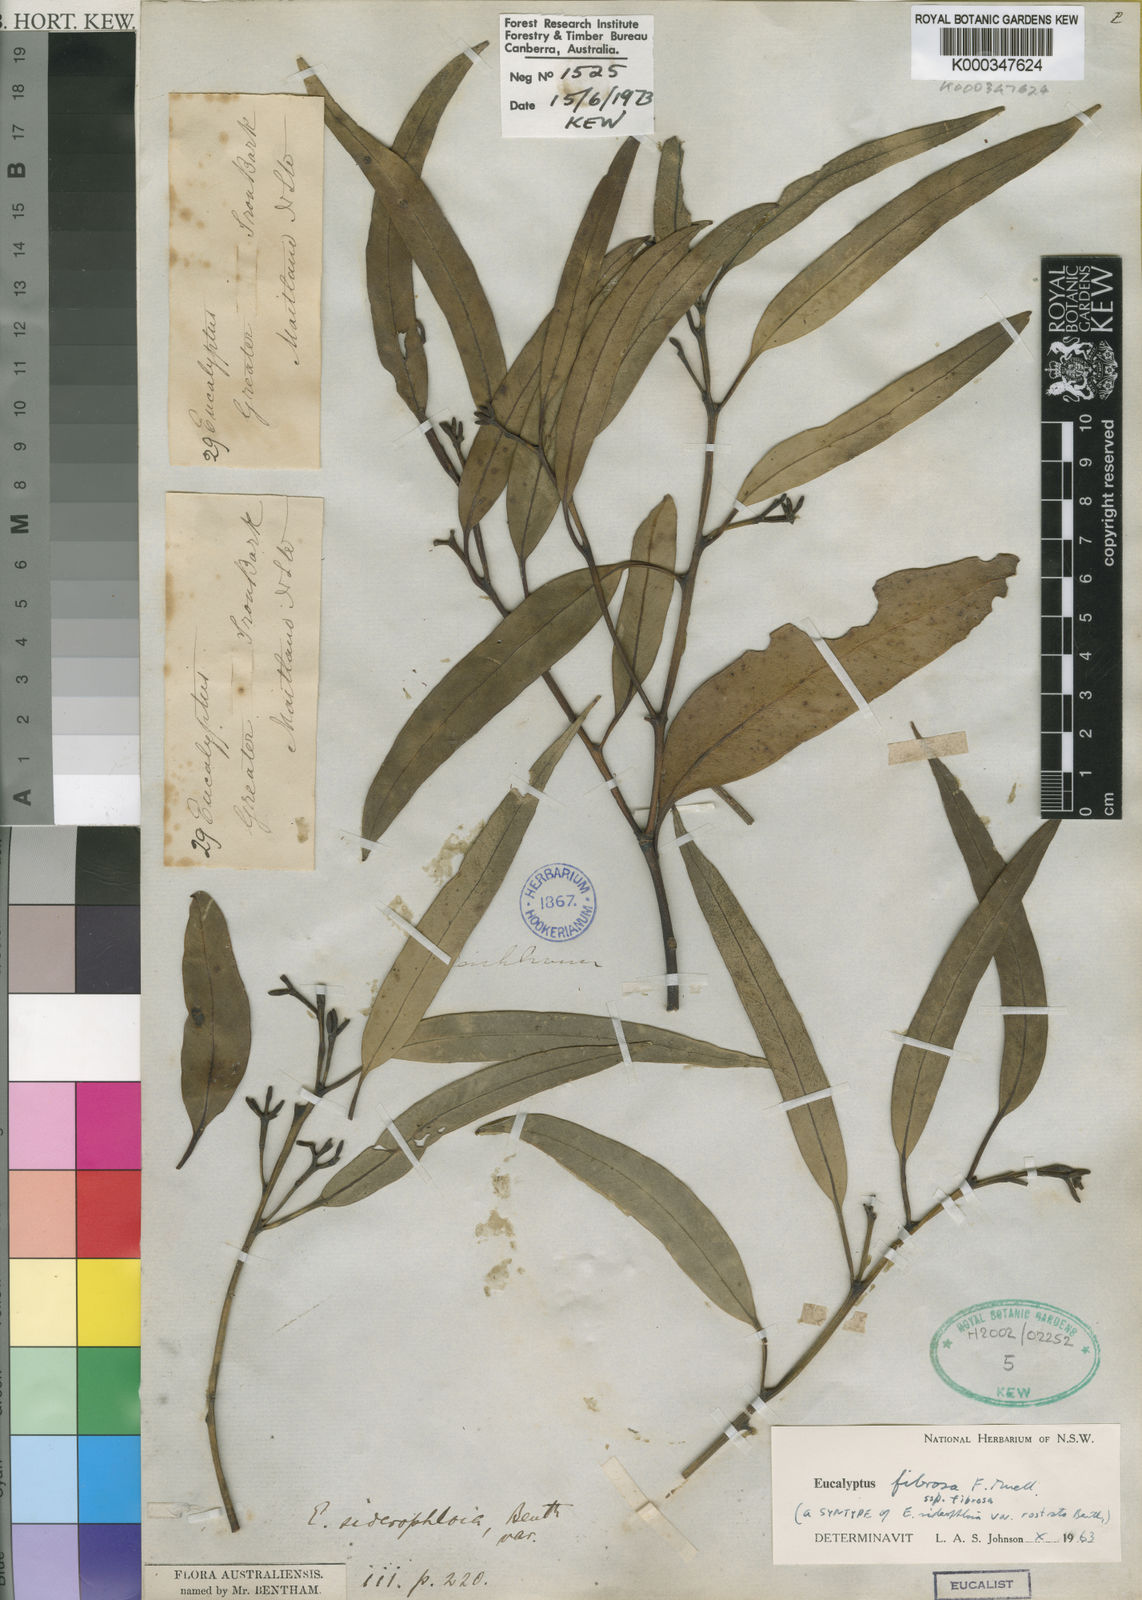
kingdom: Plantae
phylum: Tracheophyta
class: Magnoliopsida
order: Myrtales
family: Myrtaceae
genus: Eucalyptus
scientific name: Eucalyptus fibrosa
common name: Red ironbark
